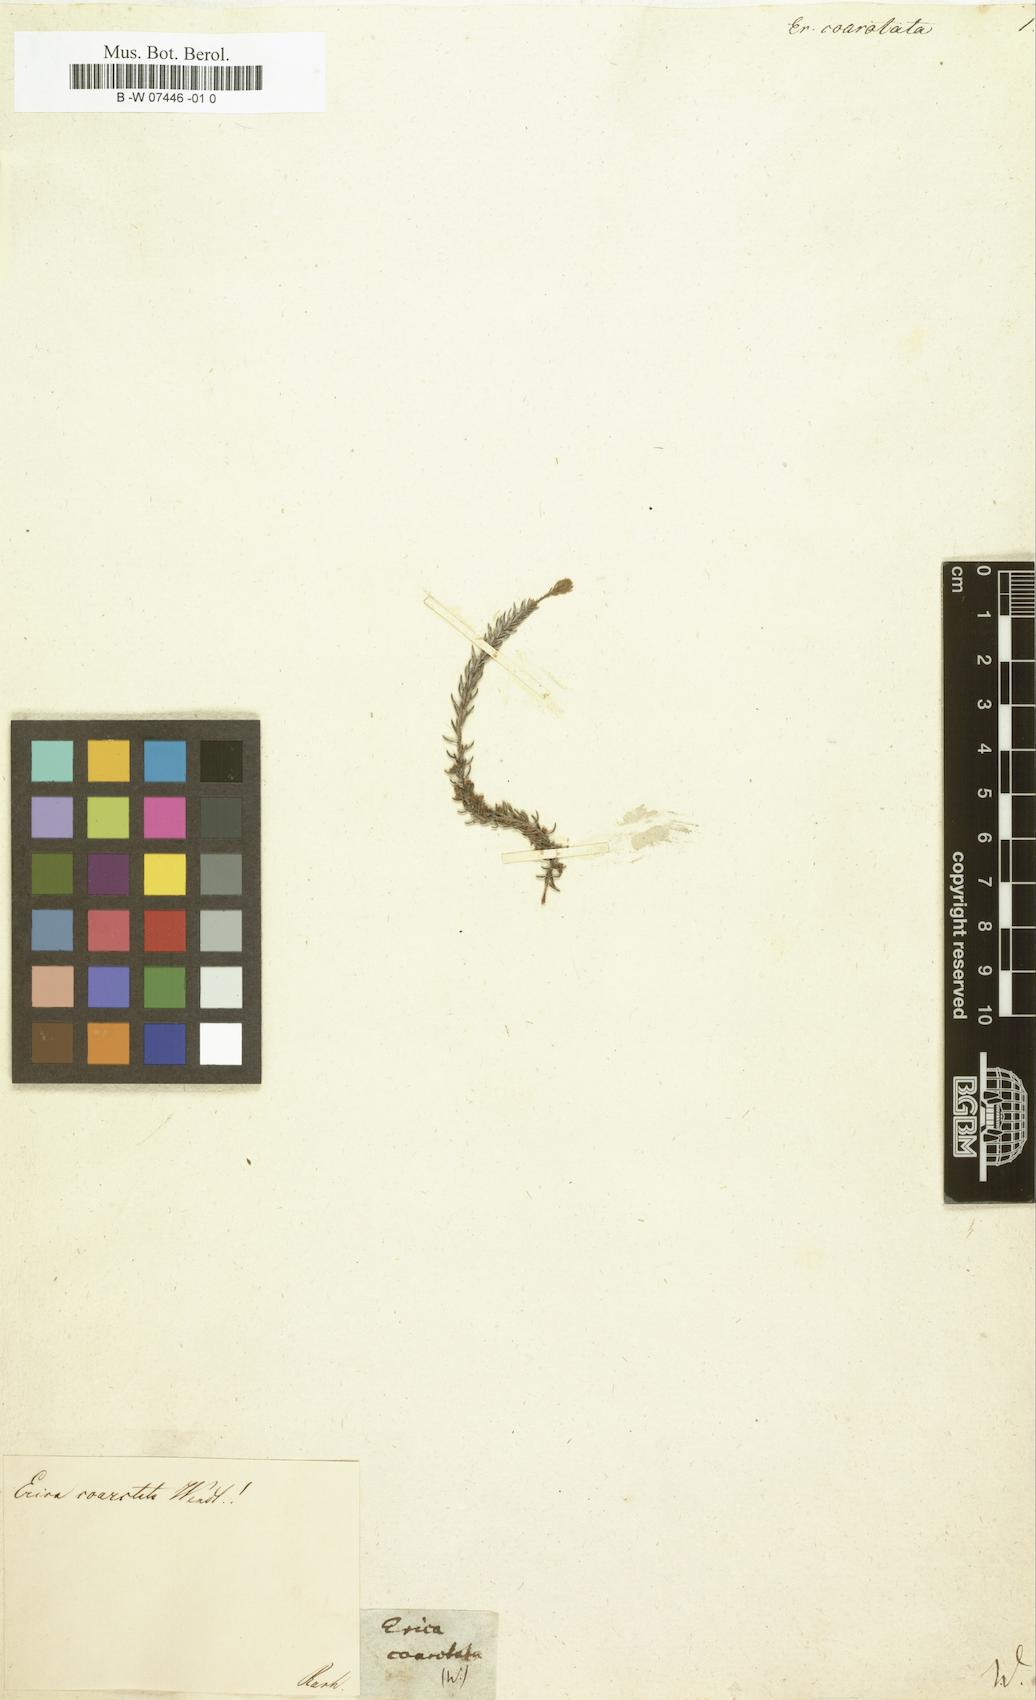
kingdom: Plantae
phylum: Tracheophyta
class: Magnoliopsida
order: Ericales
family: Ericaceae
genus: Erica
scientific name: Erica coarctata
